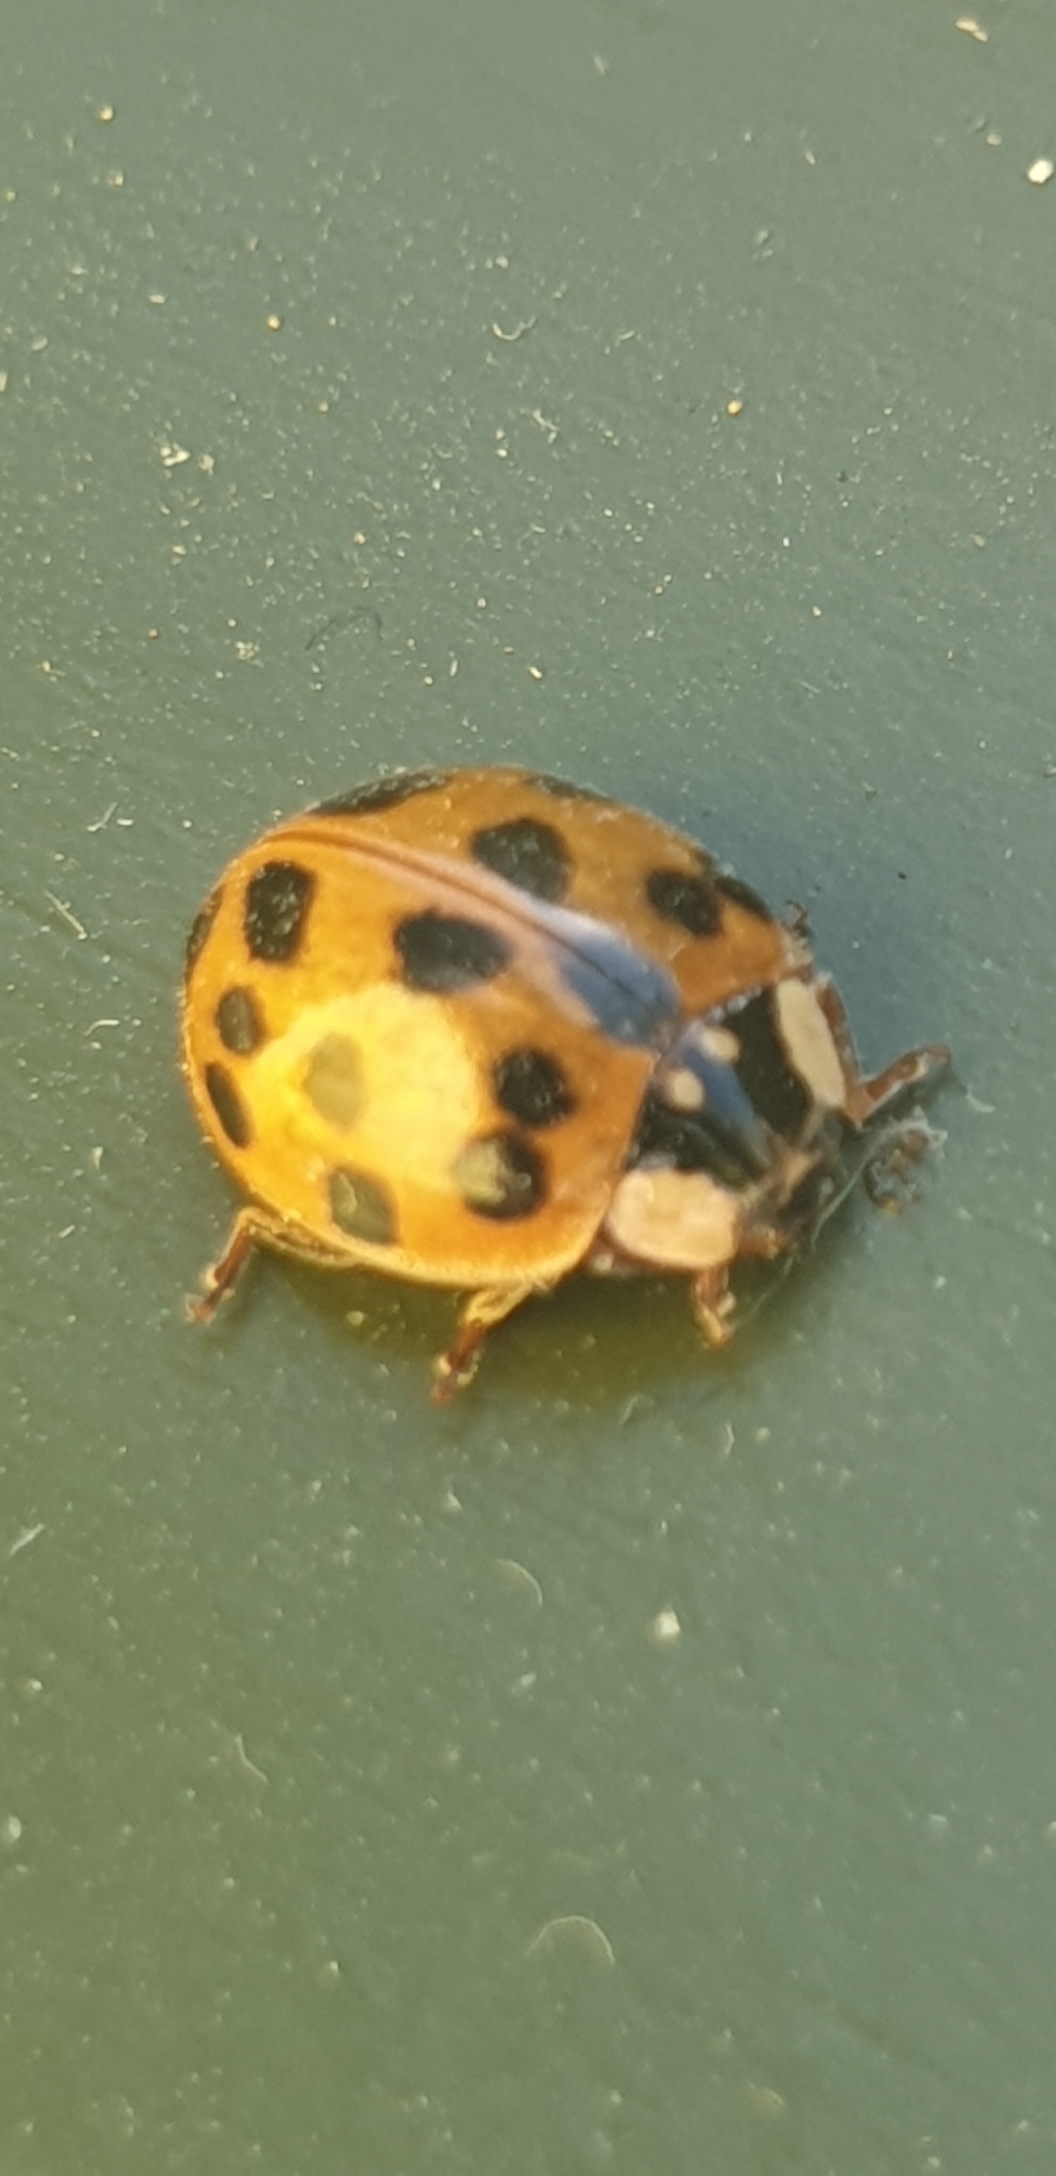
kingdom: Animalia
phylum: Arthropoda
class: Insecta
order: Coleoptera
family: Coccinellidae
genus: Harmonia
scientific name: Harmonia axyridis
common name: Harlekinmariehøne
